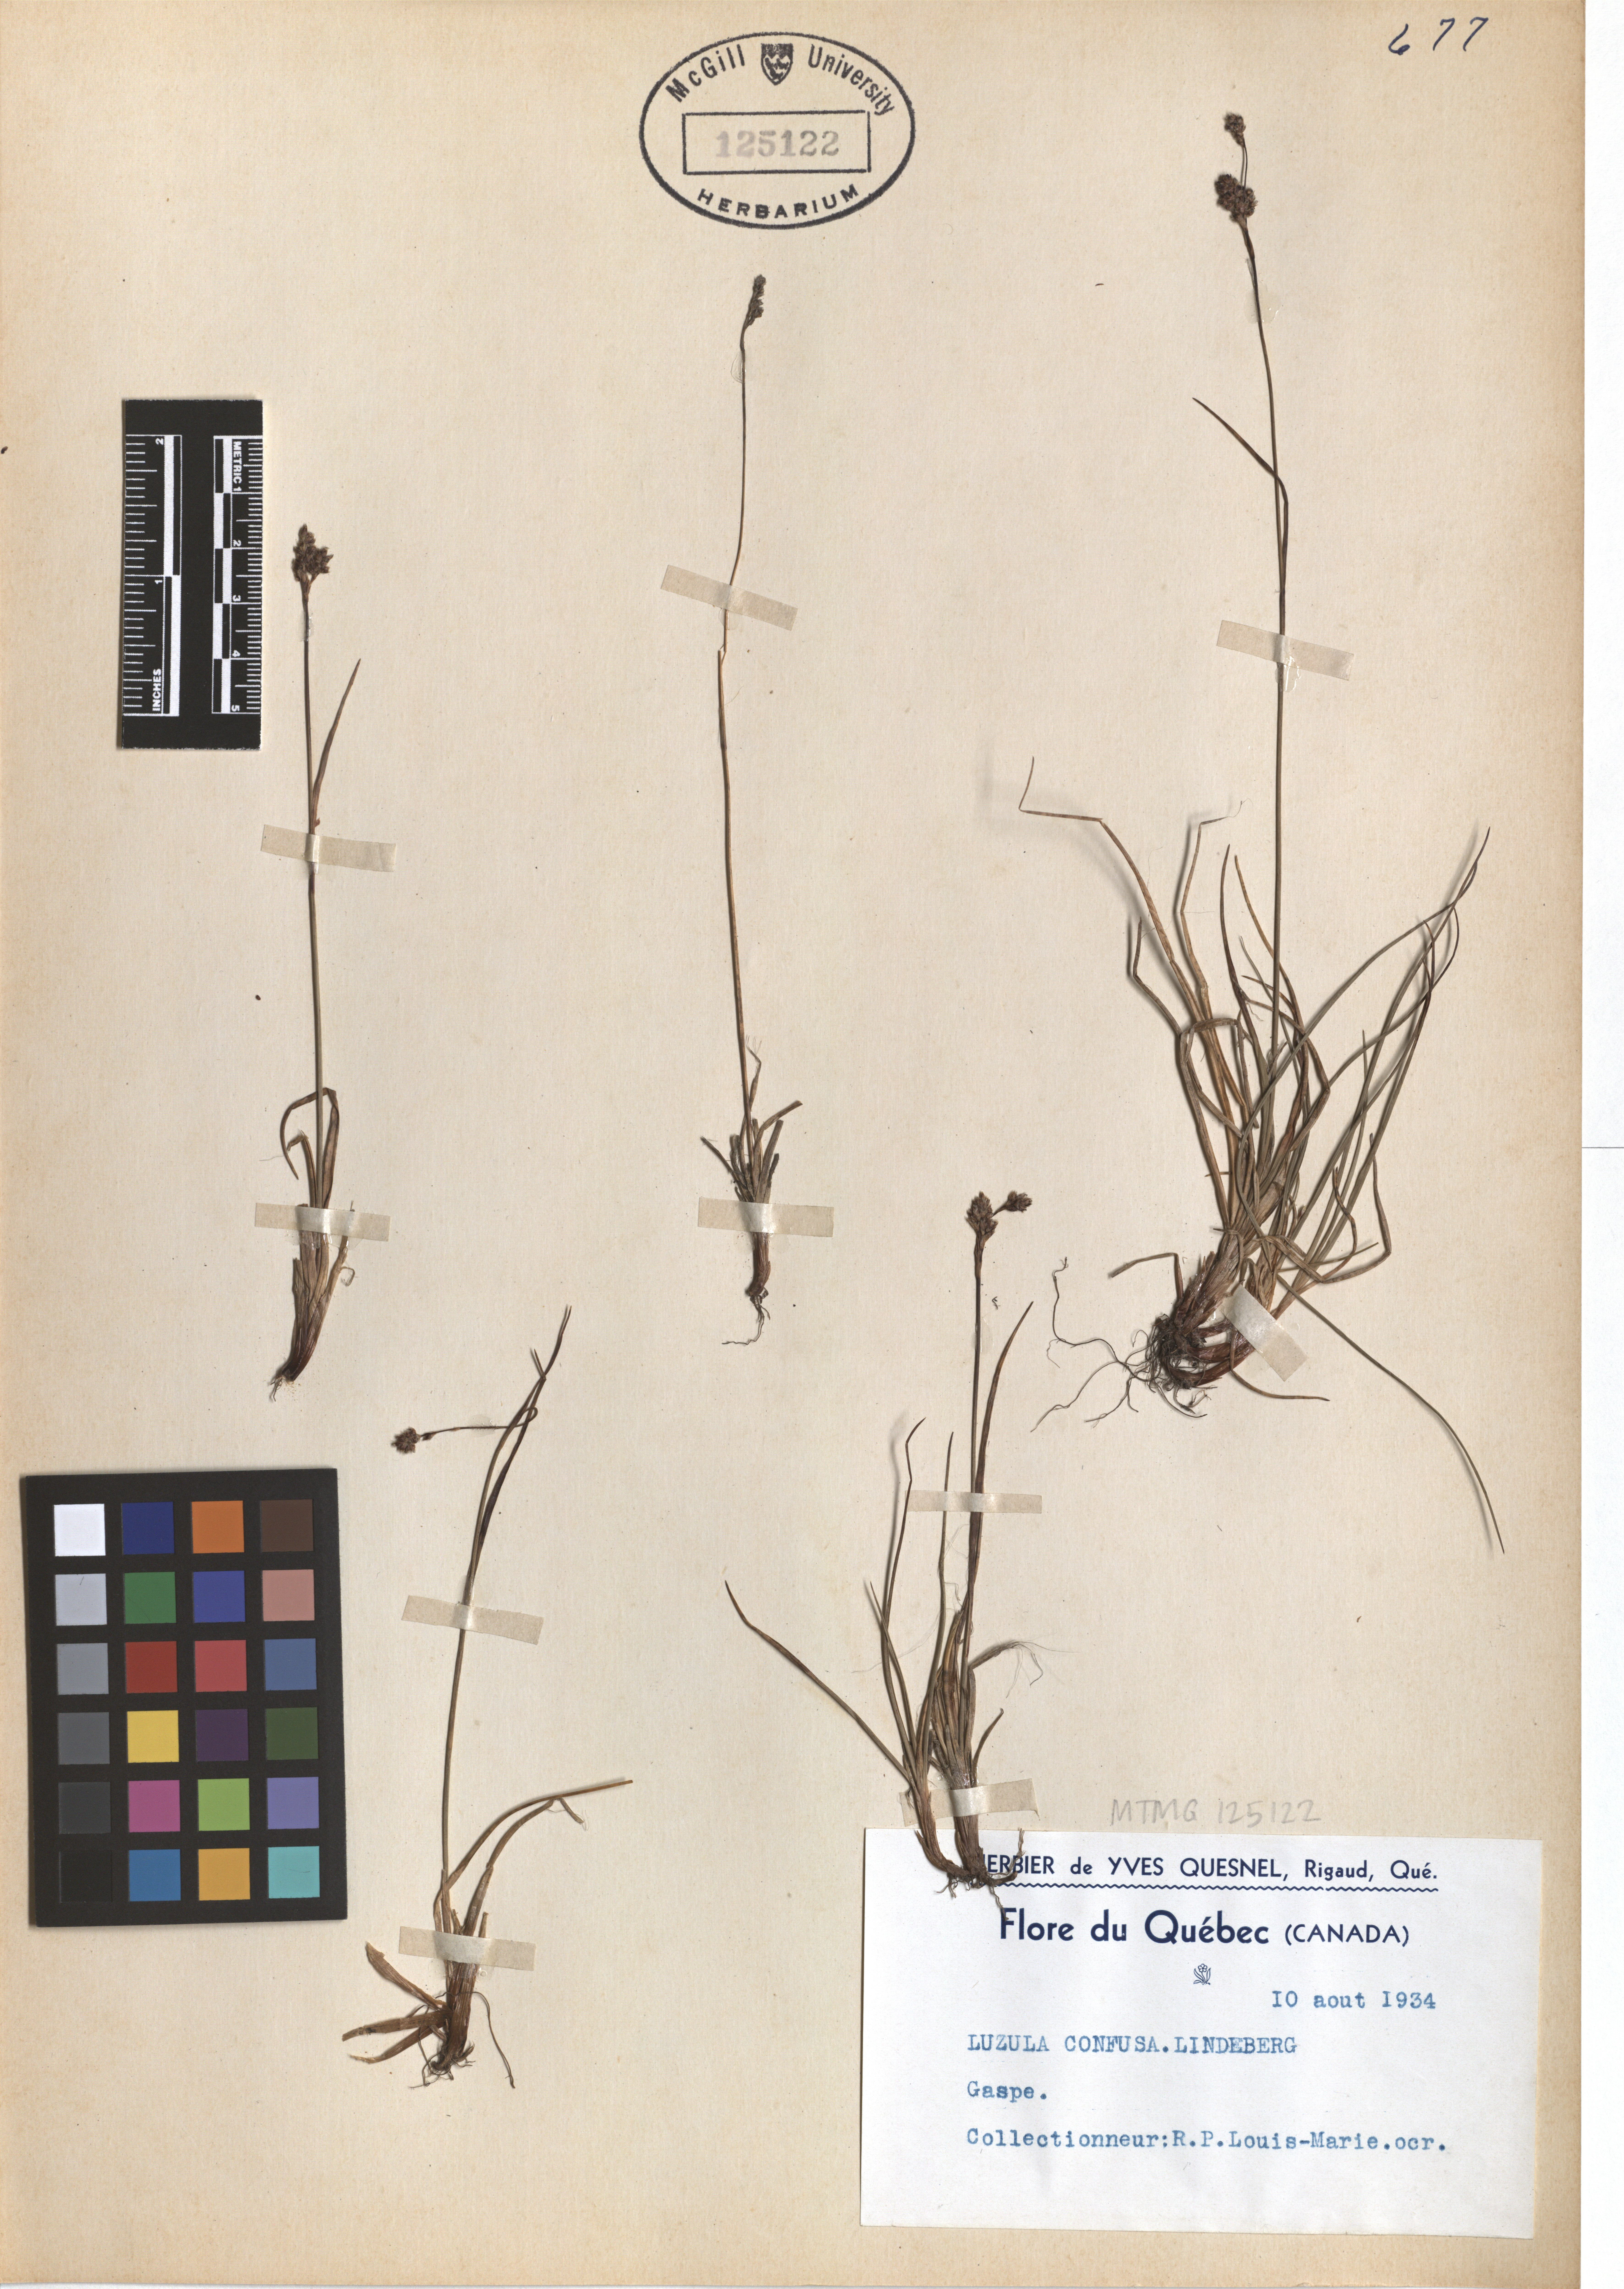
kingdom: Plantae
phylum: Tracheophyta
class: Liliopsida
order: Poales
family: Juncaceae
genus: Luzula
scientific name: Luzula confusa
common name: Northern wood rush
